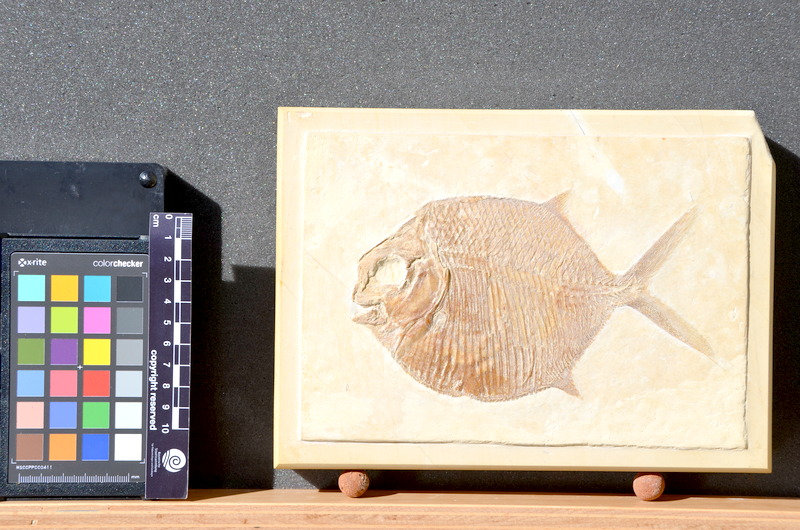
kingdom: Animalia
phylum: Chordata
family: Gyrodontidae
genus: Gyrodus
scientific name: Gyrodus hexagonus
